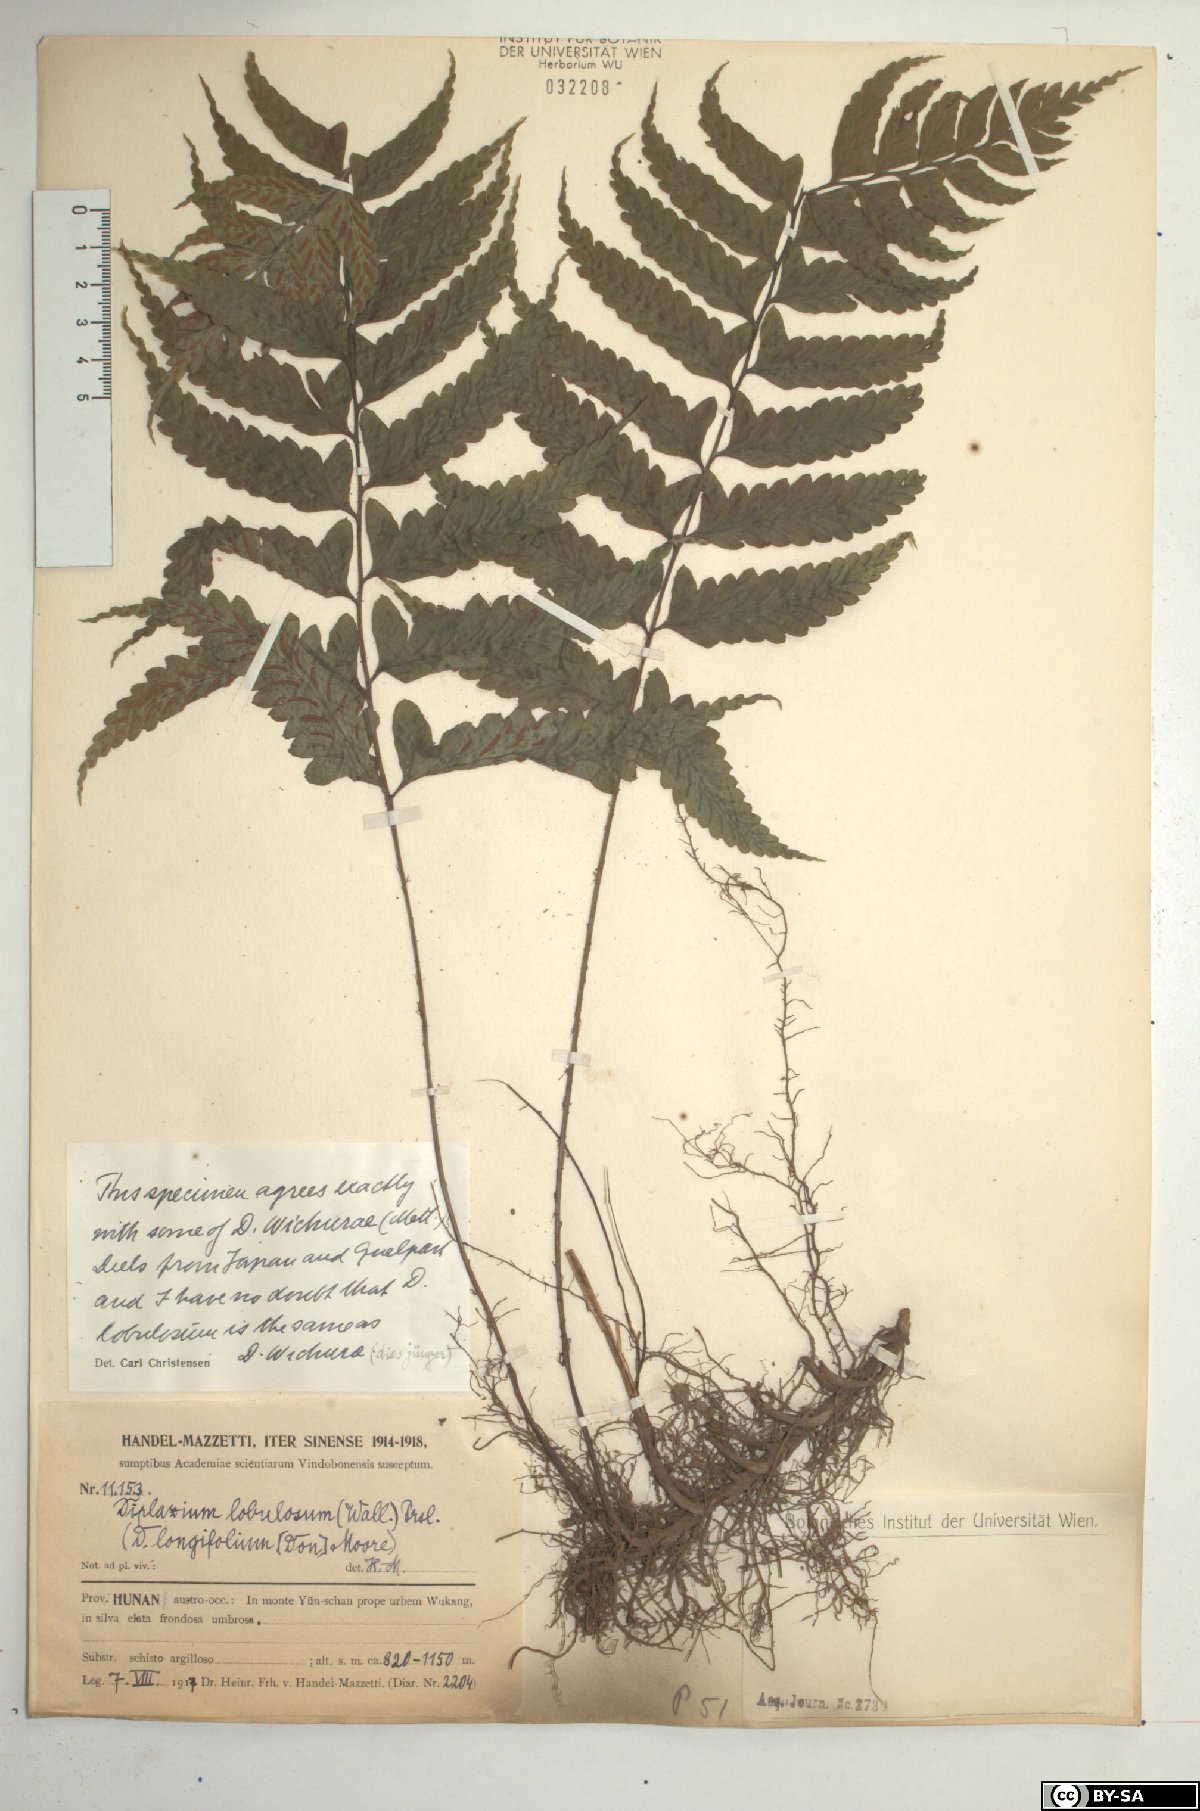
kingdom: Plantae
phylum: Tracheophyta
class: Polypodiopsida
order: Polypodiales
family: Athyriaceae
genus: Diplazium
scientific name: Diplazium longifolium
